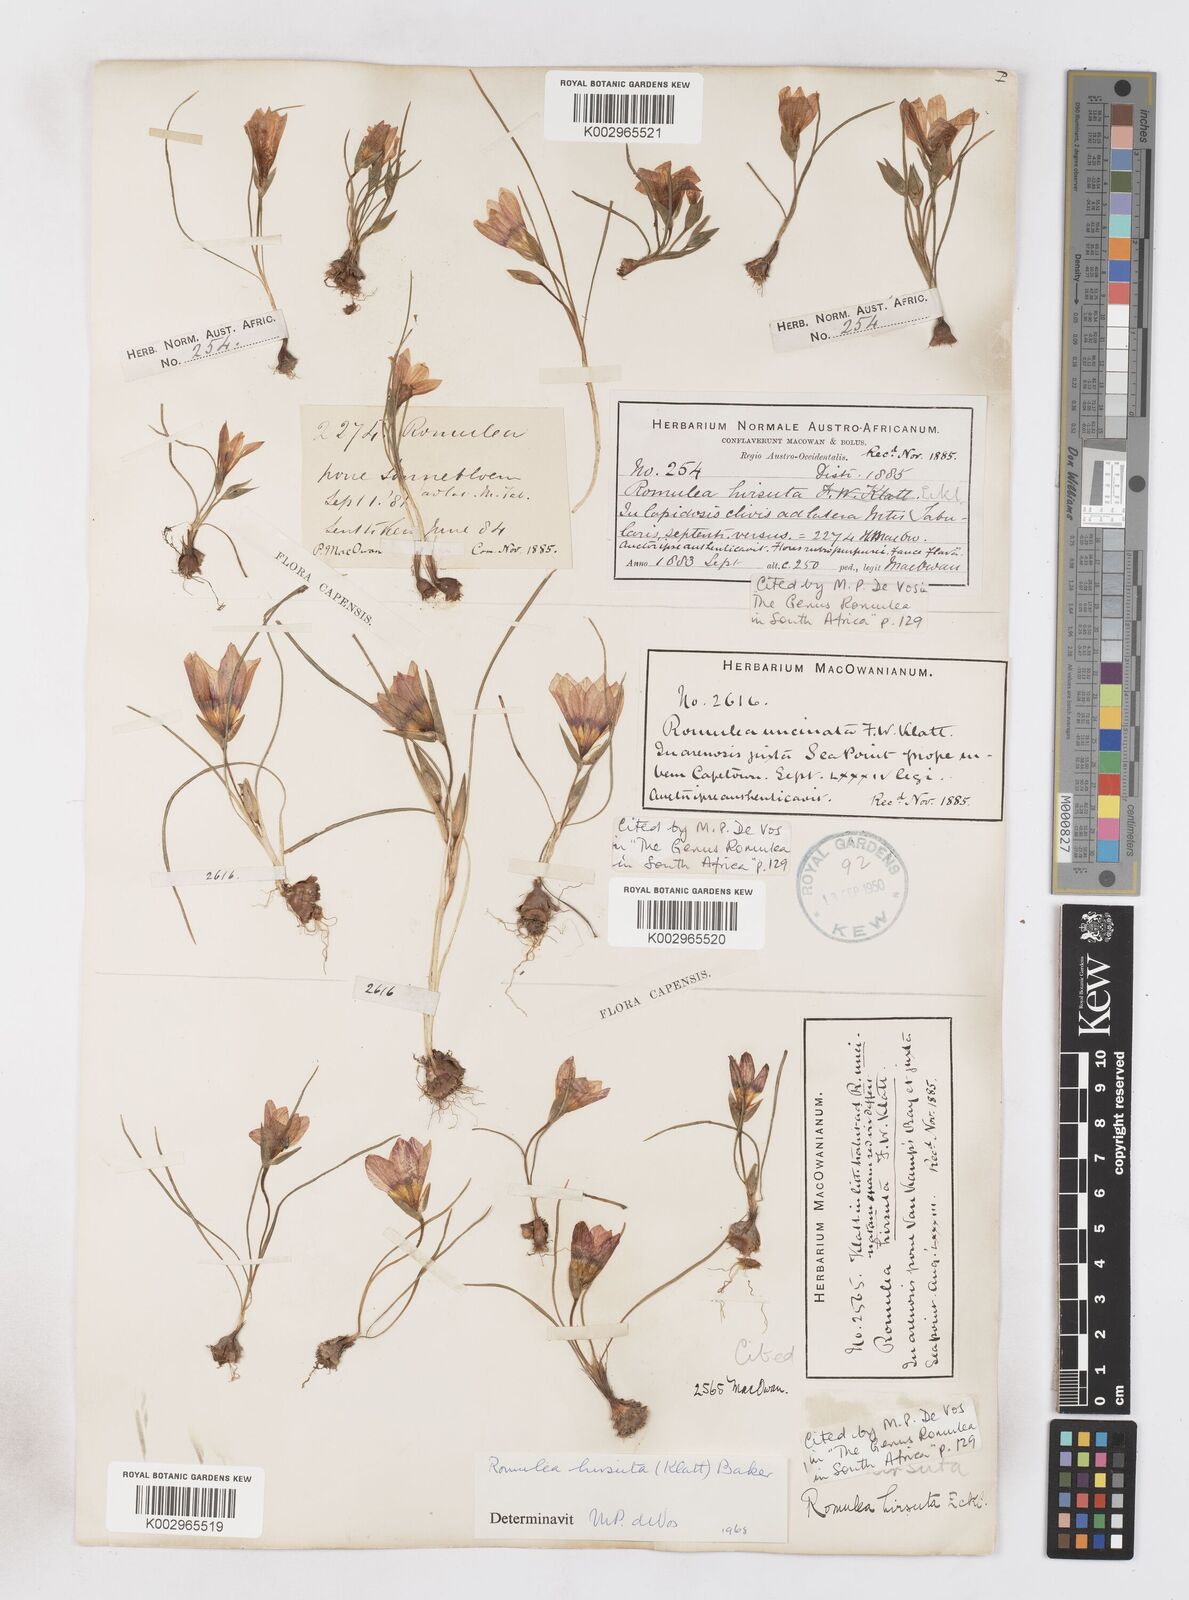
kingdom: Plantae
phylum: Tracheophyta
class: Liliopsida
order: Asparagales
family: Iridaceae
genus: Romulea
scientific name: Romulea hirsuta
